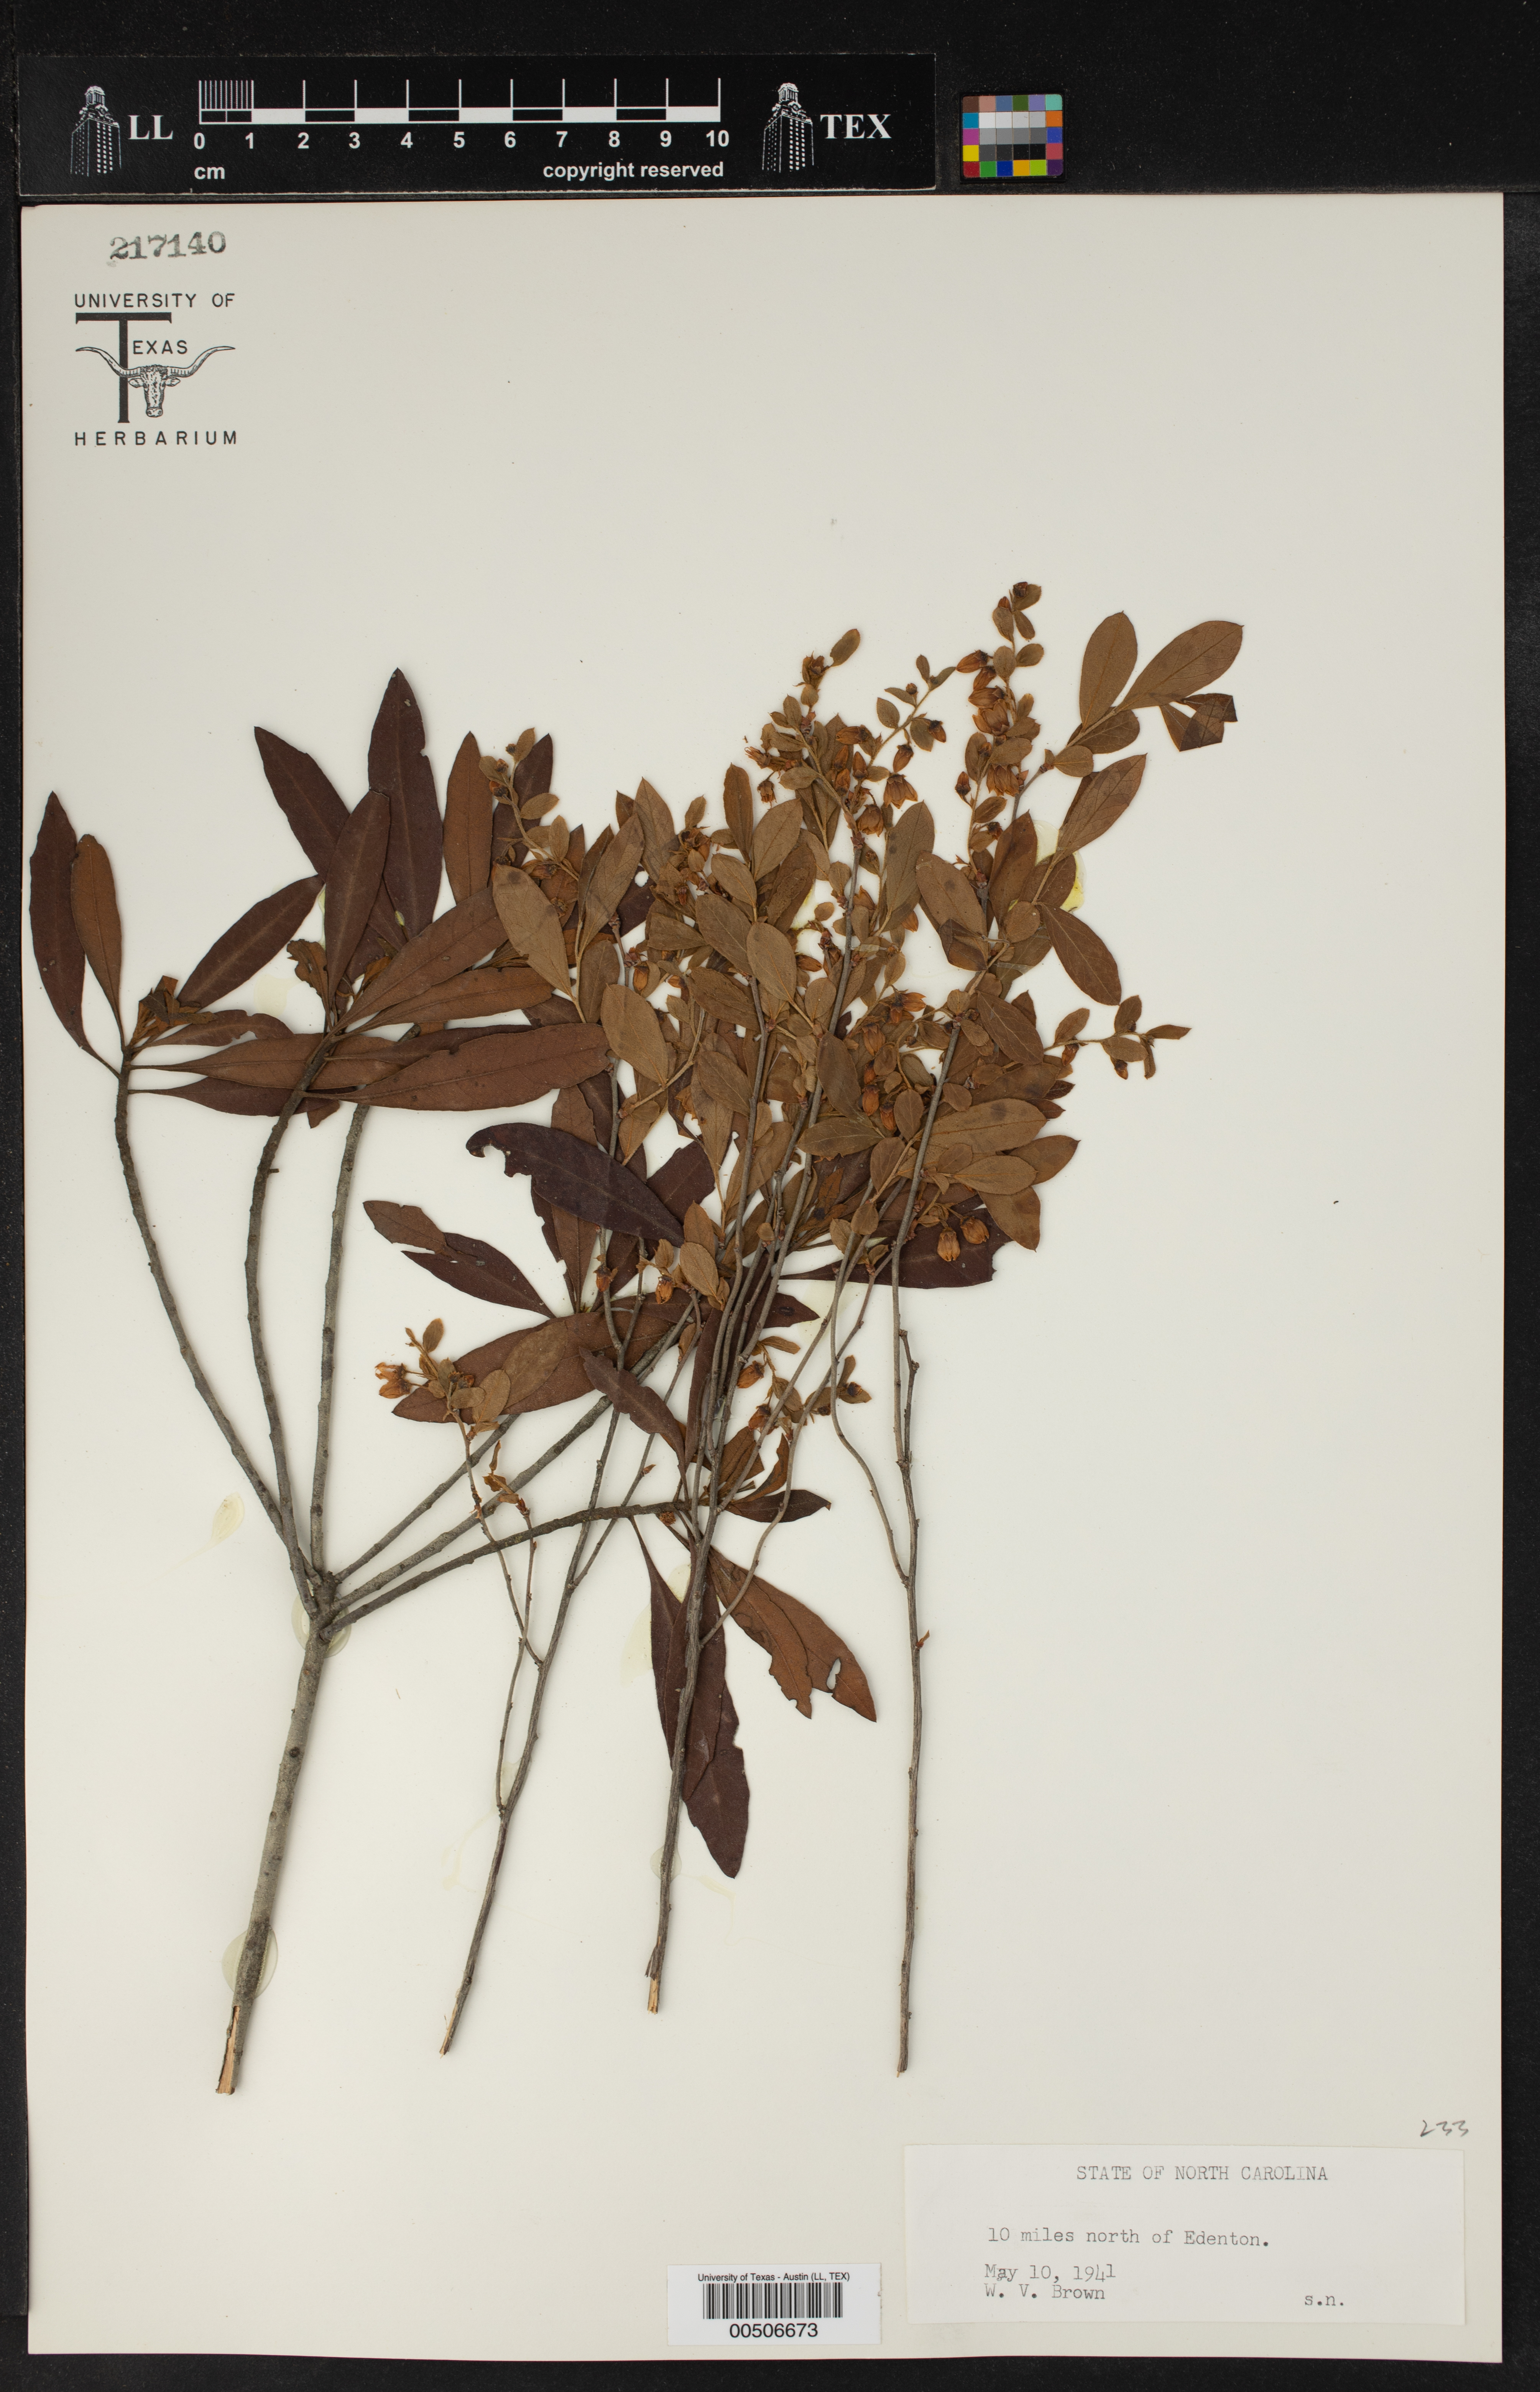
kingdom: Plantae
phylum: Tracheophyta
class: Magnoliopsida
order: Ericales
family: Ericaceae
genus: Vaccinium
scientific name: Vaccinium
